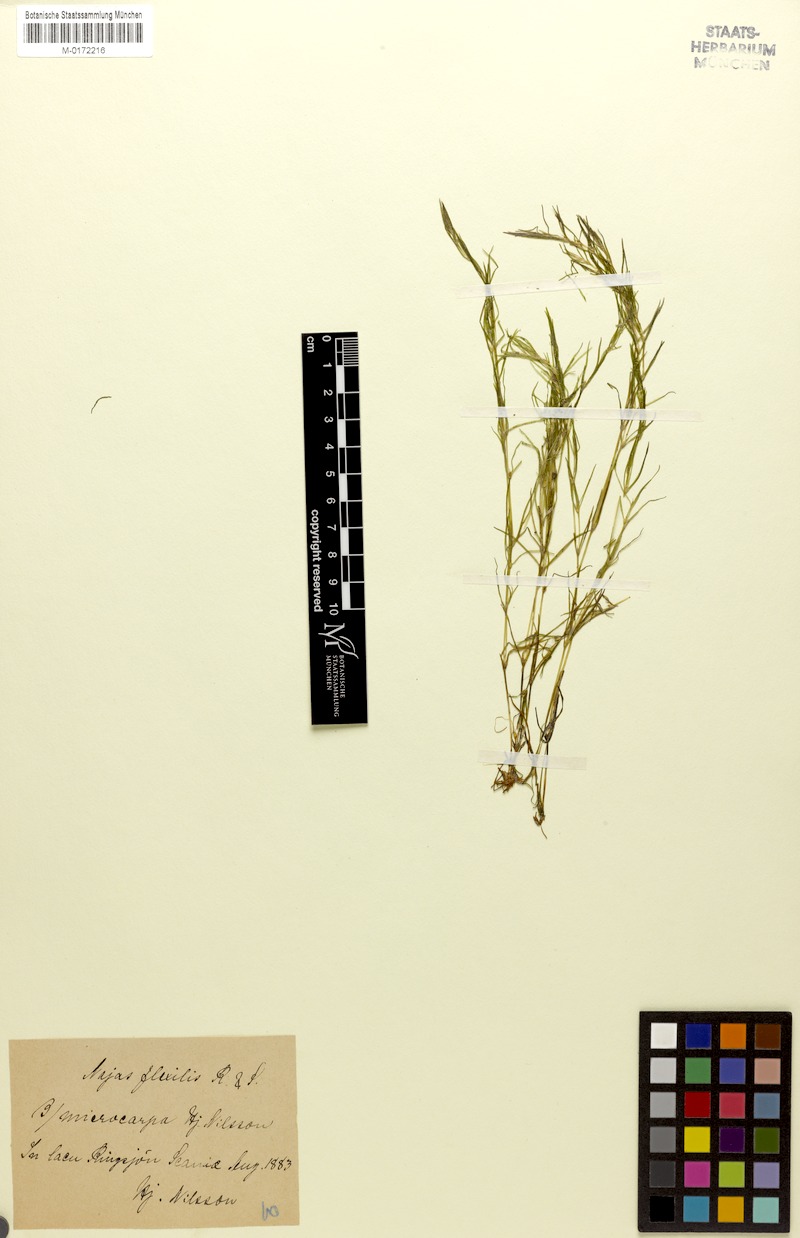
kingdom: Plantae
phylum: Tracheophyta
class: Liliopsida
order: Alismatales
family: Hydrocharitaceae
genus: Najas
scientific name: Najas flexilis
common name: Slender naiad
